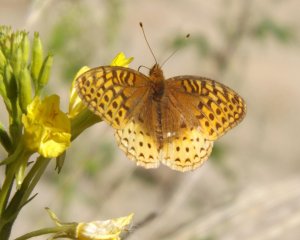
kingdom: Animalia
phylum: Arthropoda
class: Insecta
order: Lepidoptera
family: Nymphalidae
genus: Speyeria
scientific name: Speyeria cybele
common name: Great Spangled Fritillary
